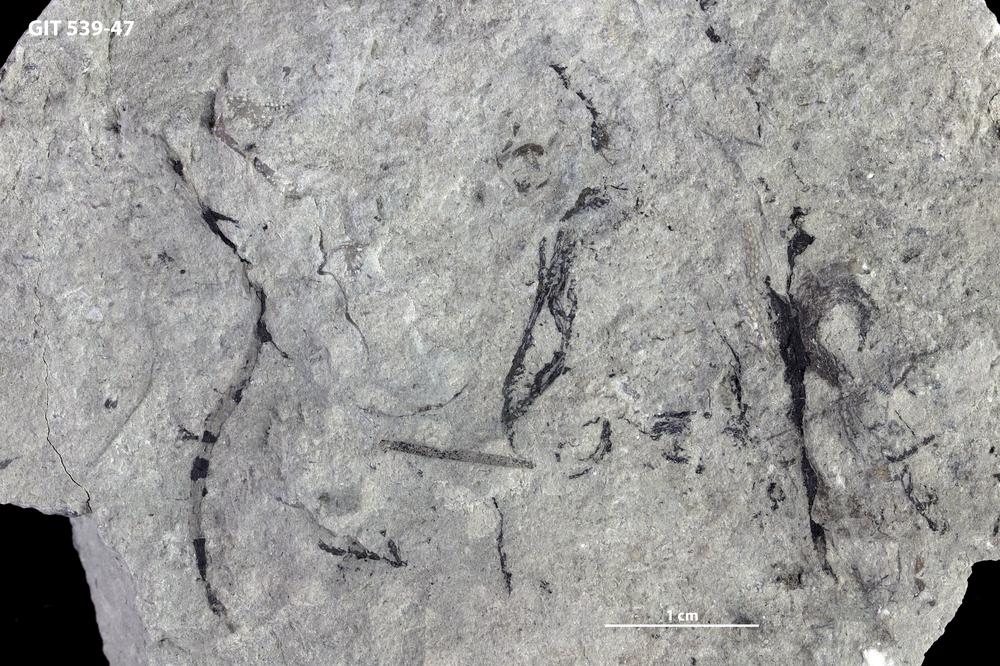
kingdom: Animalia
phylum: Hemichordata
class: Pterobranchia
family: Dendrograptidae
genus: Dendrograptus
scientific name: Dendrograptus
